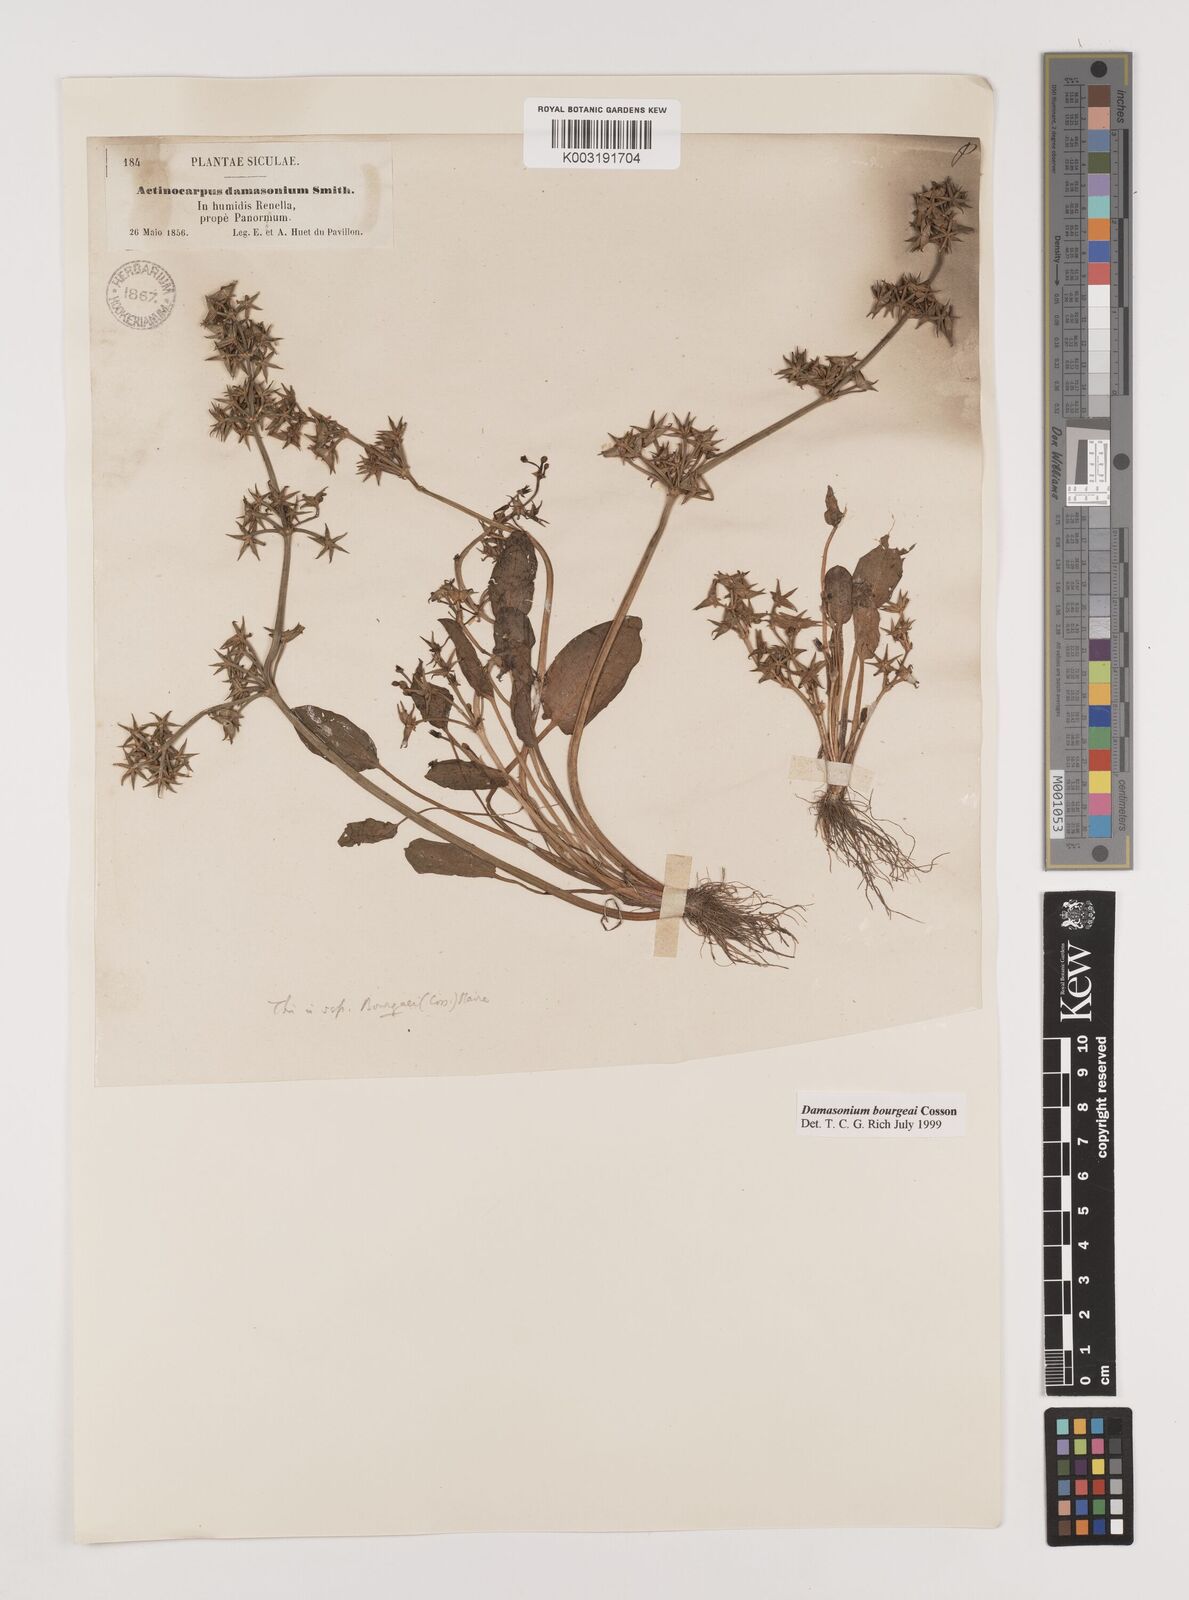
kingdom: Plantae
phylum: Tracheophyta
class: Liliopsida
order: Alismatales
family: Alismataceae
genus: Damasonium
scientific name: Damasonium bourgaei
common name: Starfruit
